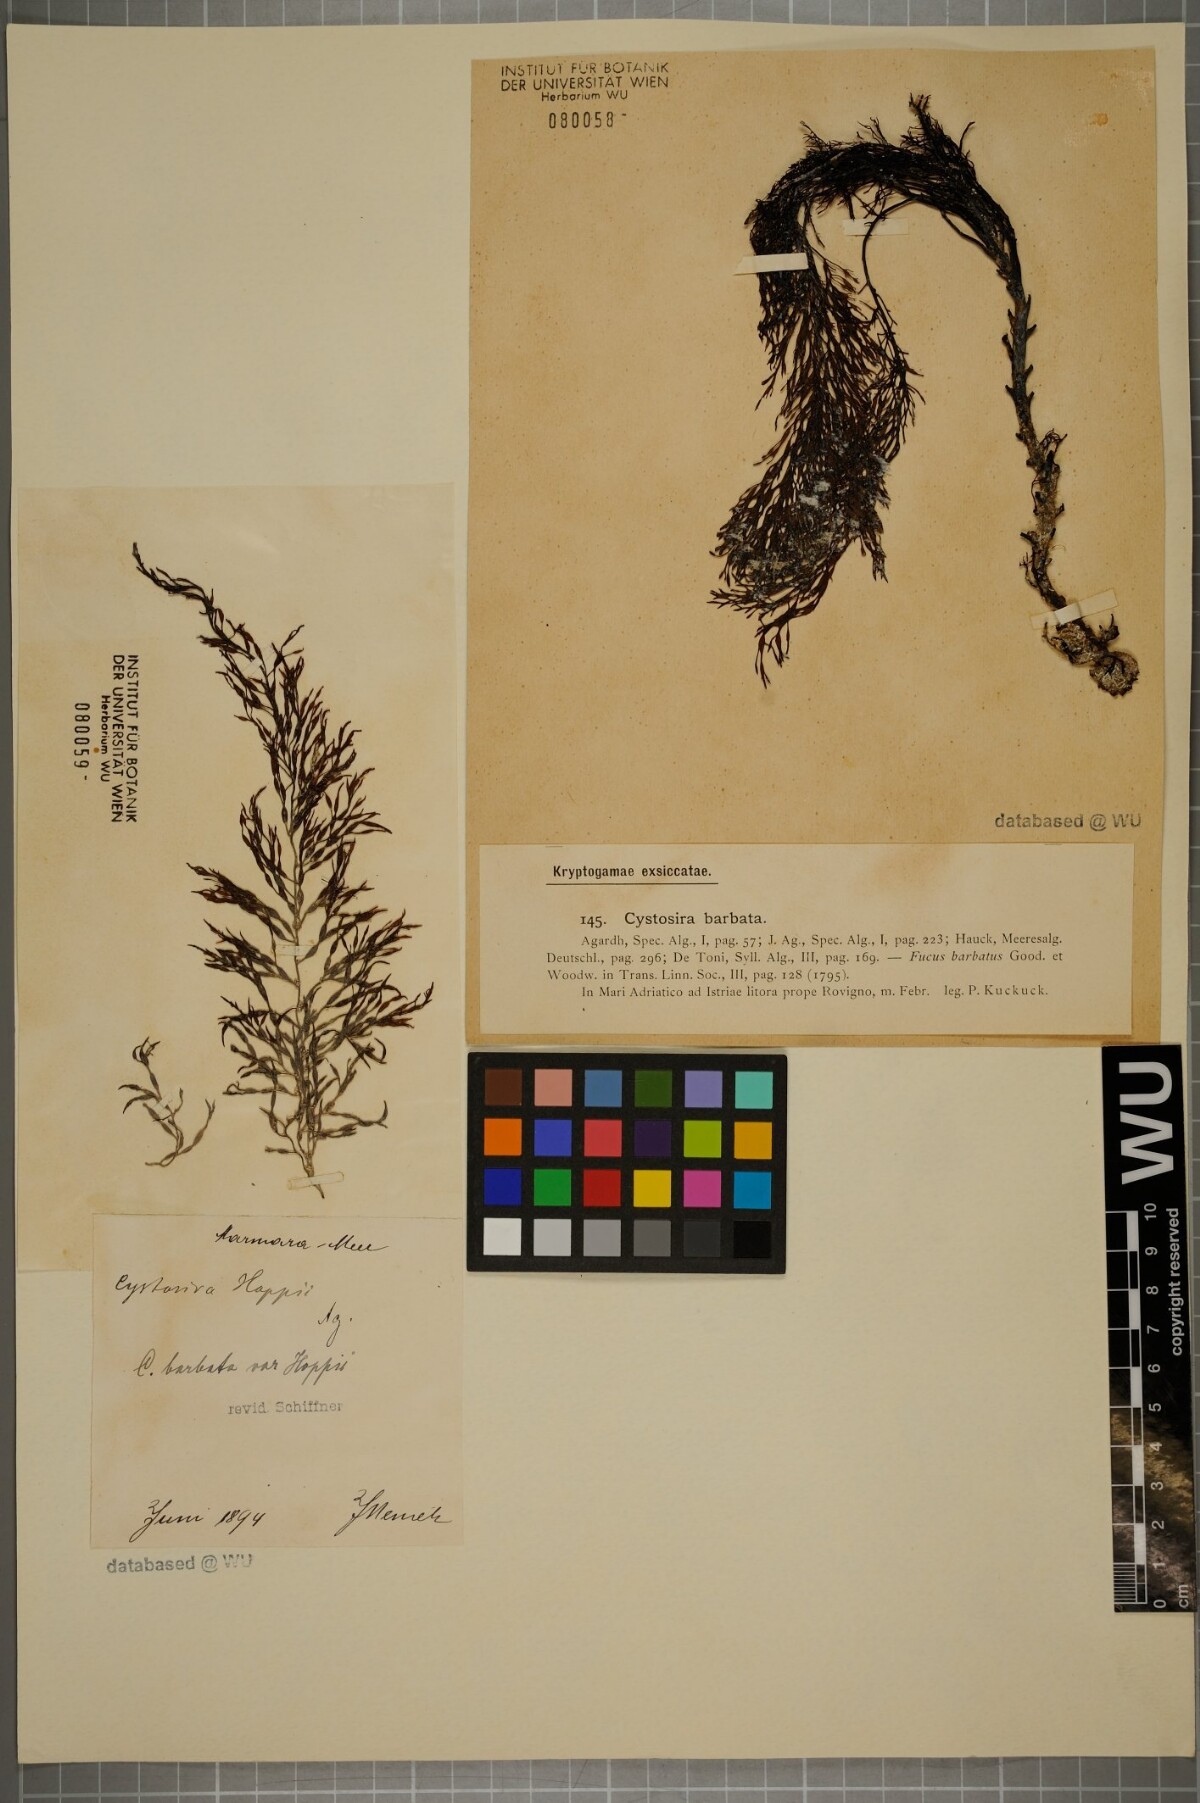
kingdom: Chromista
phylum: Ochrophyta
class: Phaeophyceae
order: Fucales
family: Sargassaceae
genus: Cystoseira
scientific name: Cystoseira Gongolaria barbata
